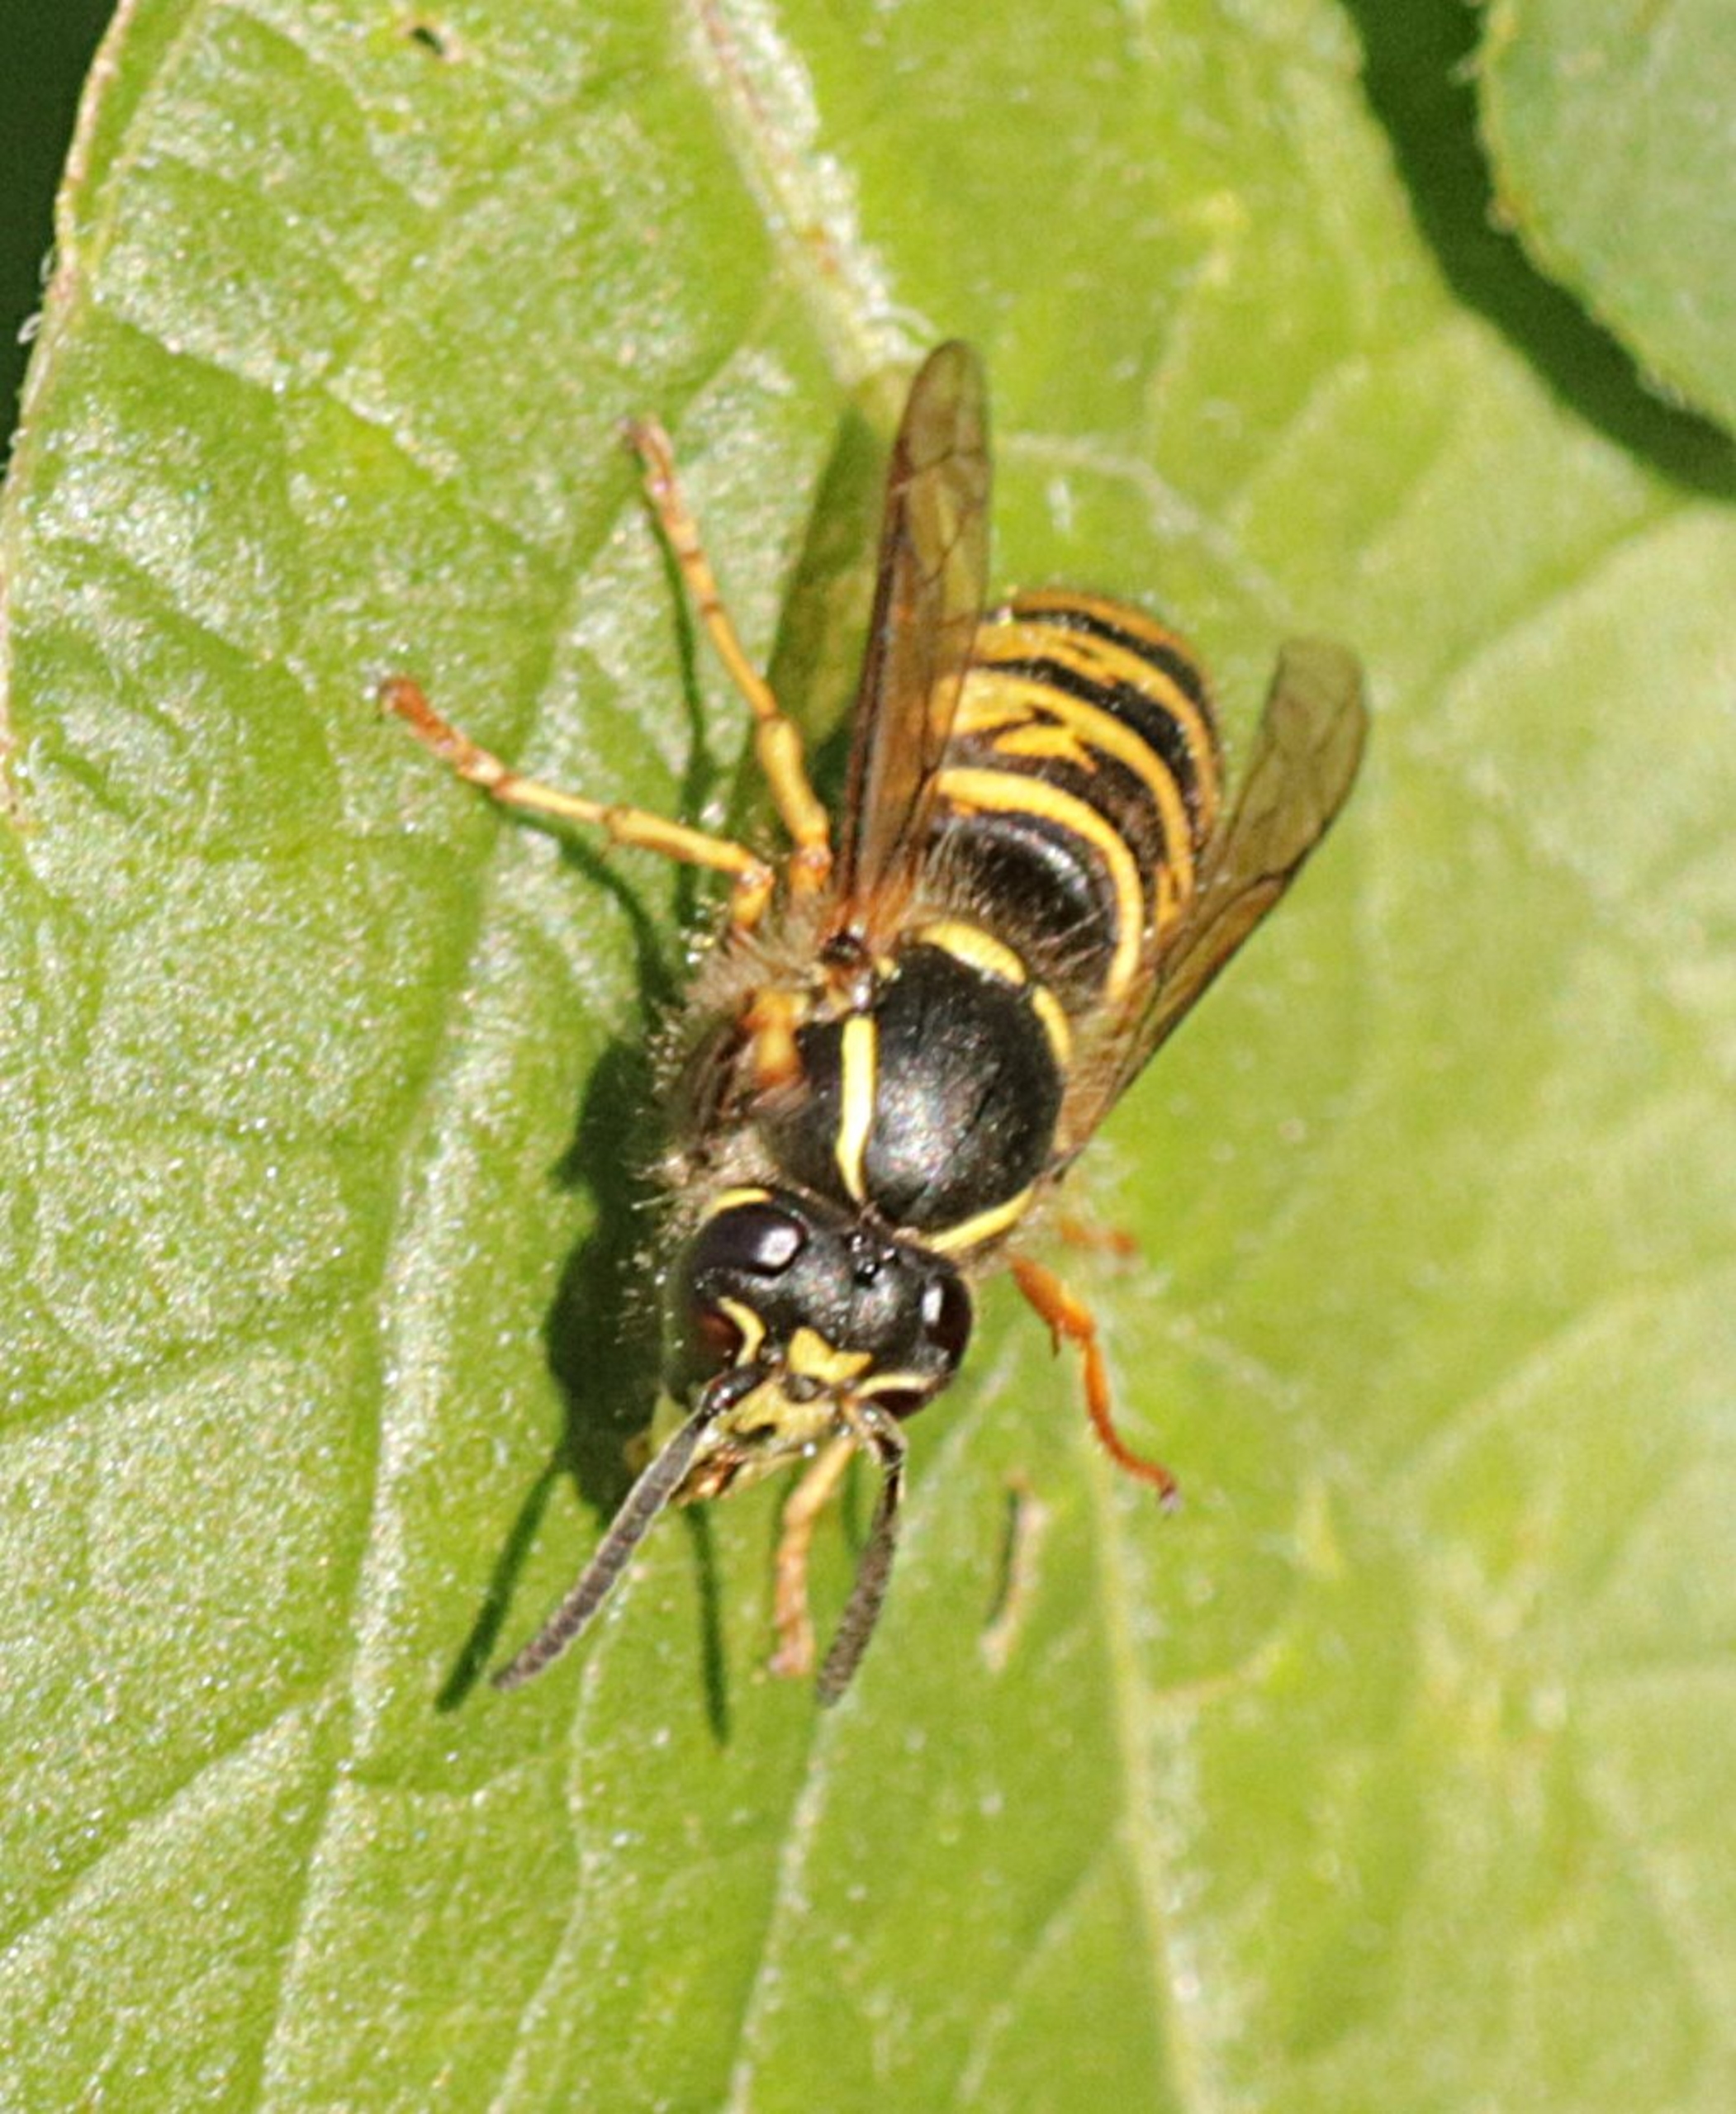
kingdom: Animalia
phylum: Arthropoda
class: Insecta
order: Hymenoptera
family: Vespidae
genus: Dolichovespula
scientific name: Dolichovespula saxonica
